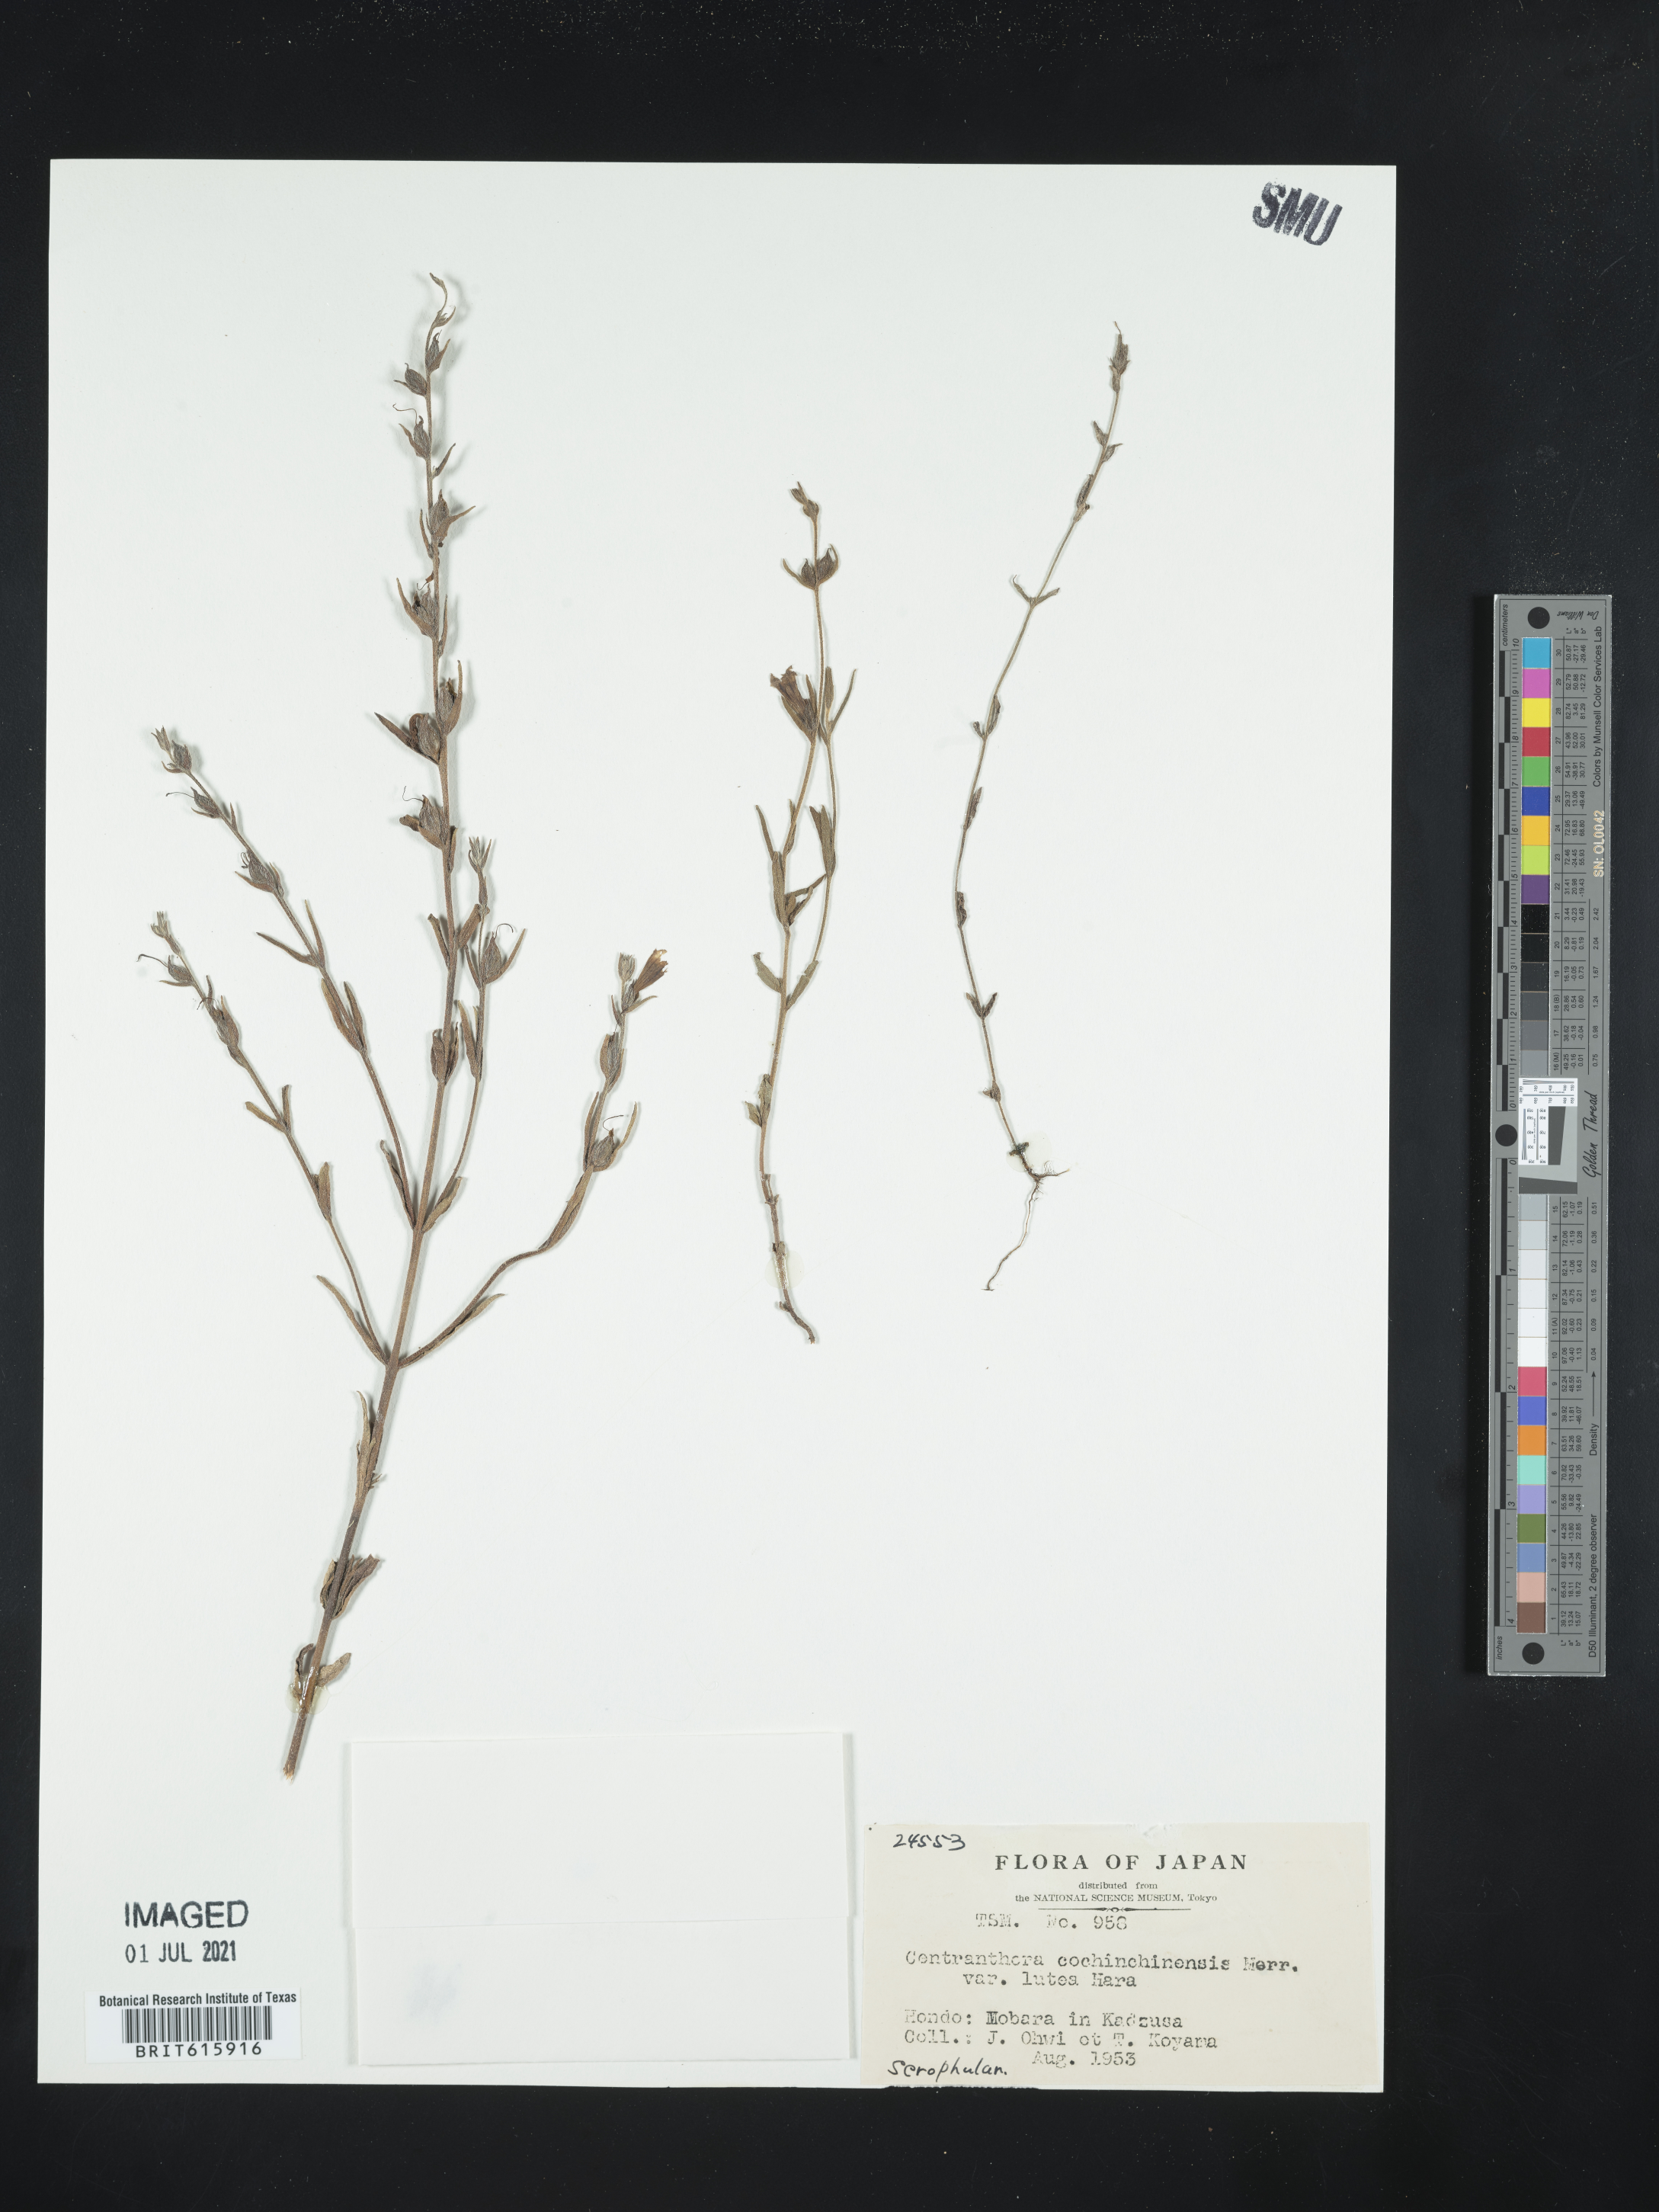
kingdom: Plantae
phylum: Tracheophyta
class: Magnoliopsida
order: Lamiales
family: Orobanchaceae
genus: Centranthera
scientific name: Centranthera cochinchinensis
